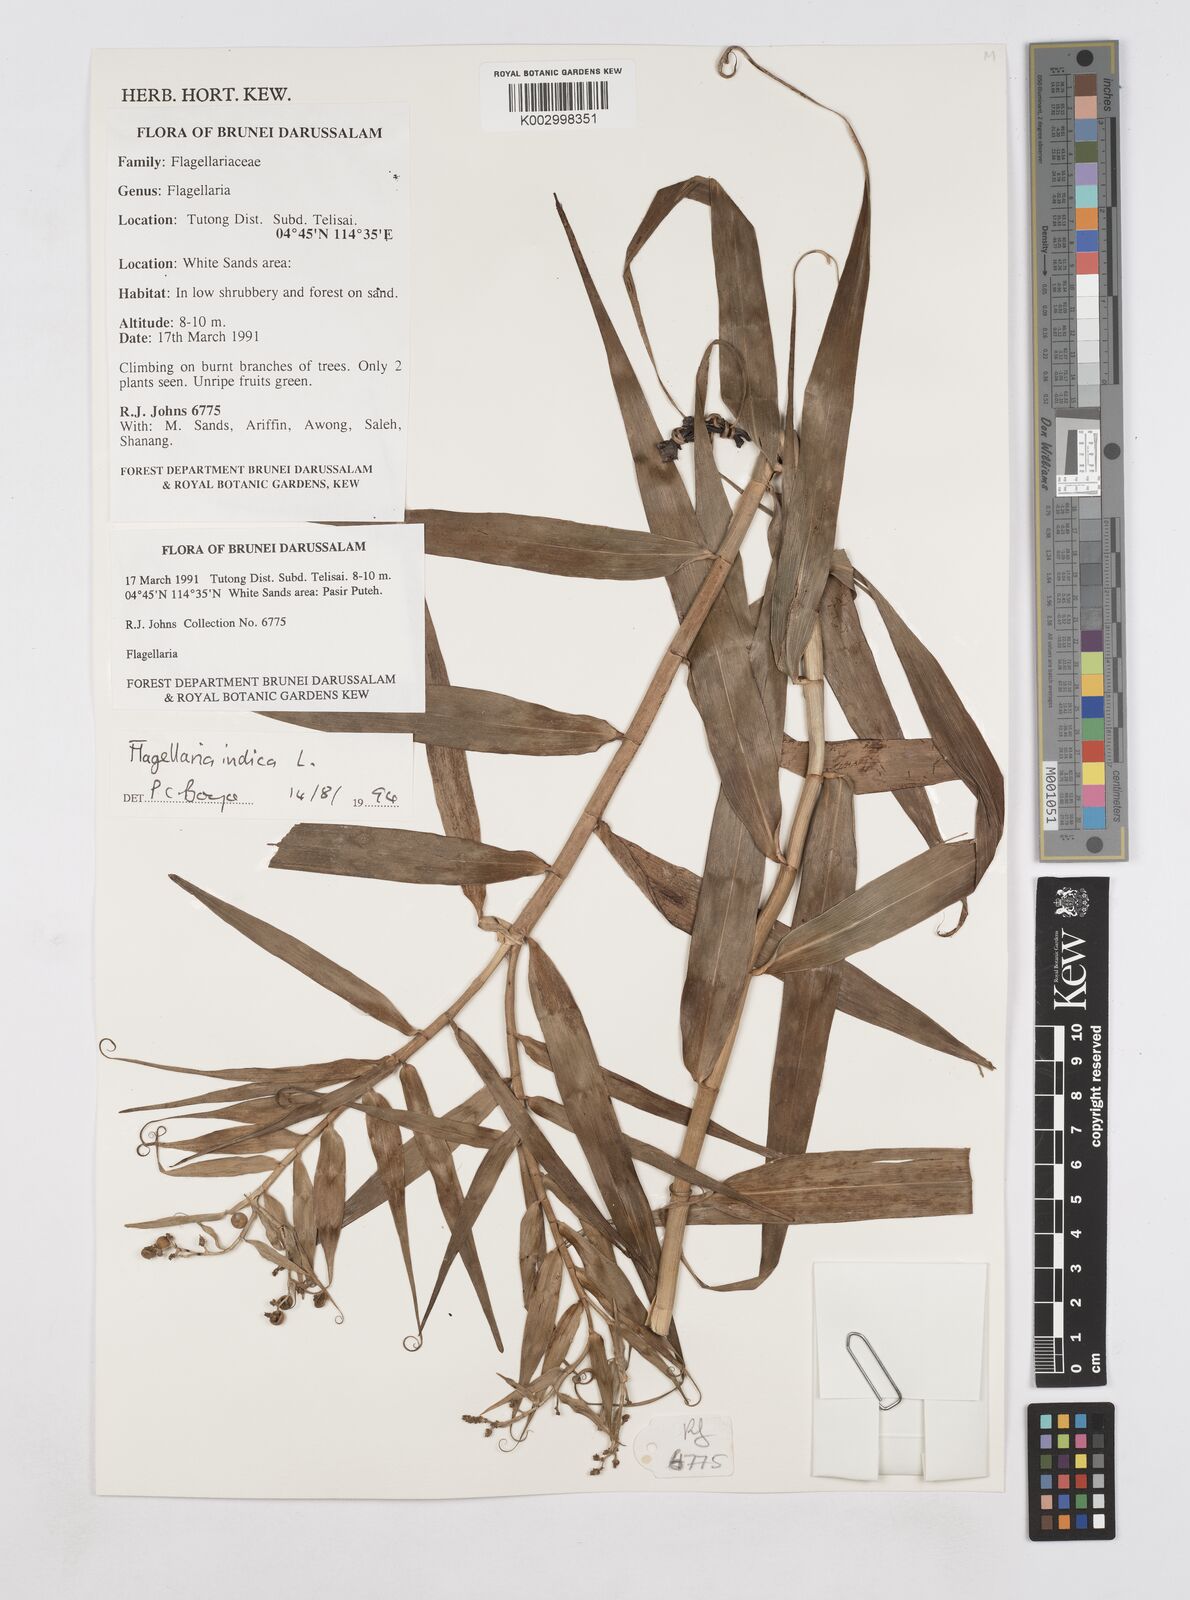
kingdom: Plantae
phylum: Tracheophyta
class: Liliopsida
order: Poales
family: Flagellariaceae
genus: Flagellaria
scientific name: Flagellaria indica
